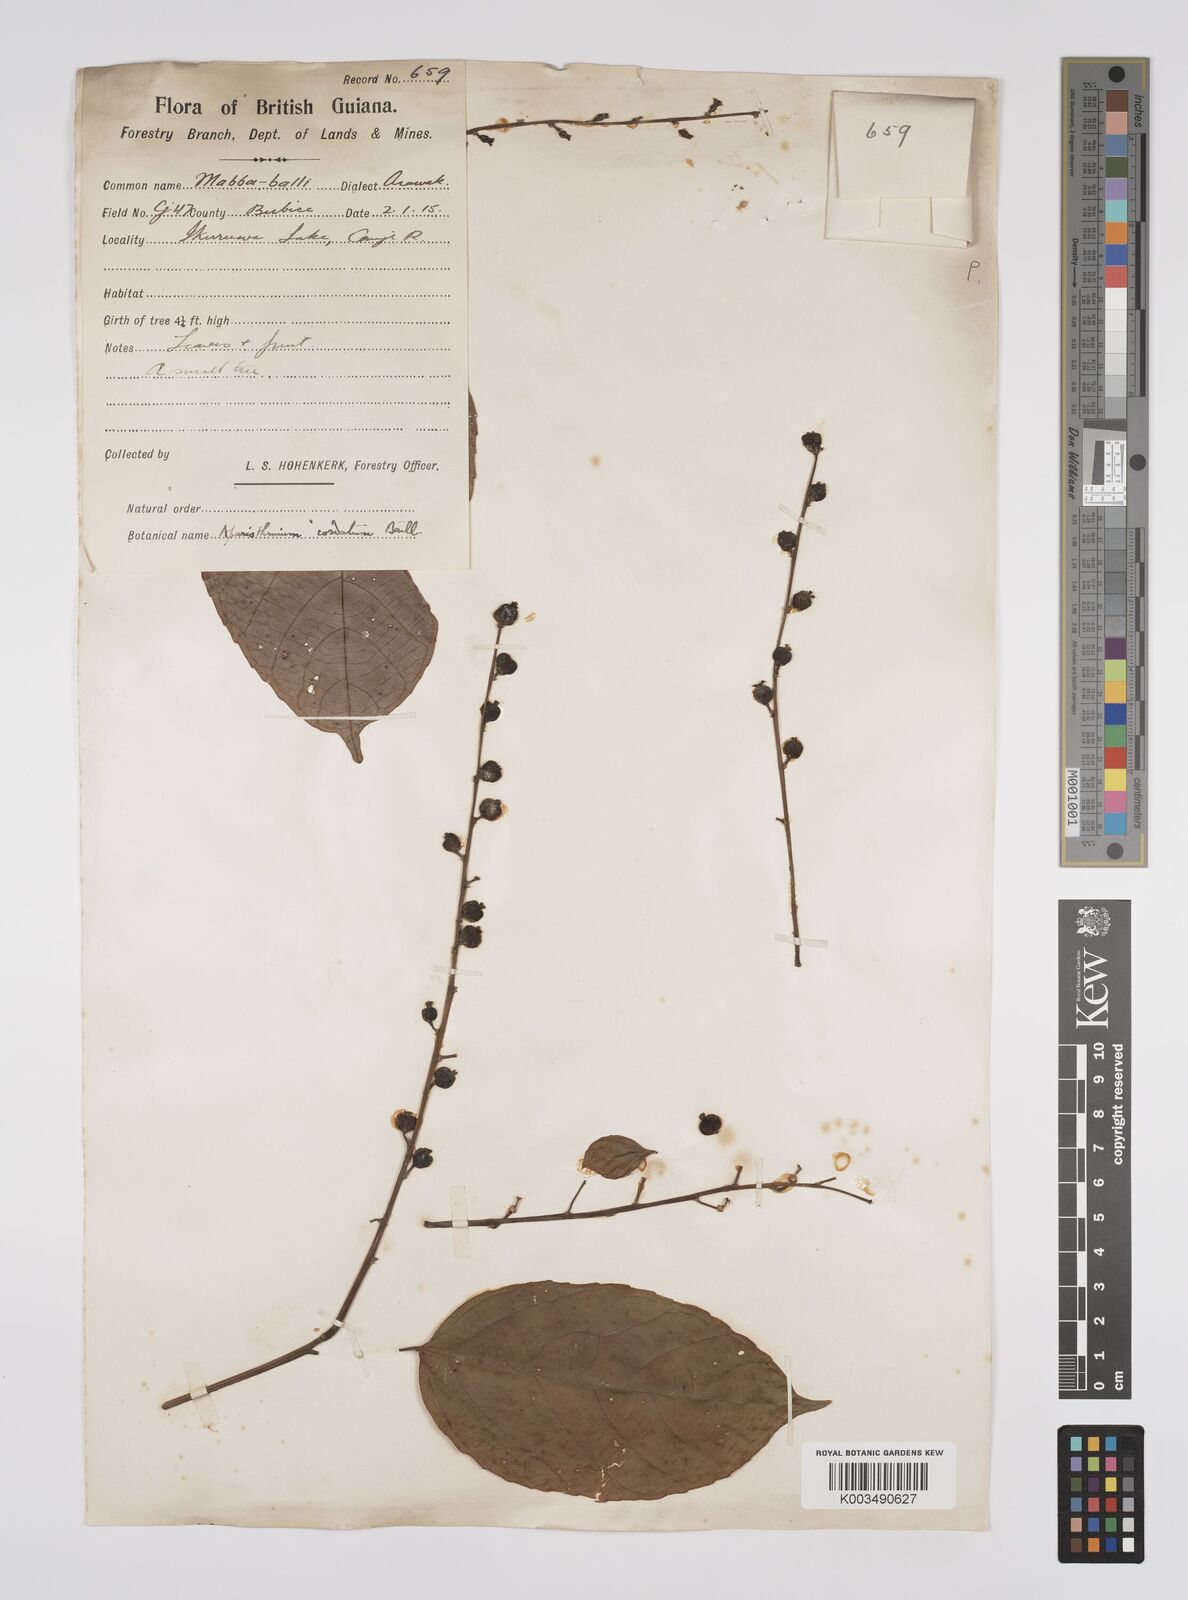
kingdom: Plantae
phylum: Tracheophyta
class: Magnoliopsida
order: Malpighiales
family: Euphorbiaceae
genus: Aparisthmium
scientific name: Aparisthmium cordatum
